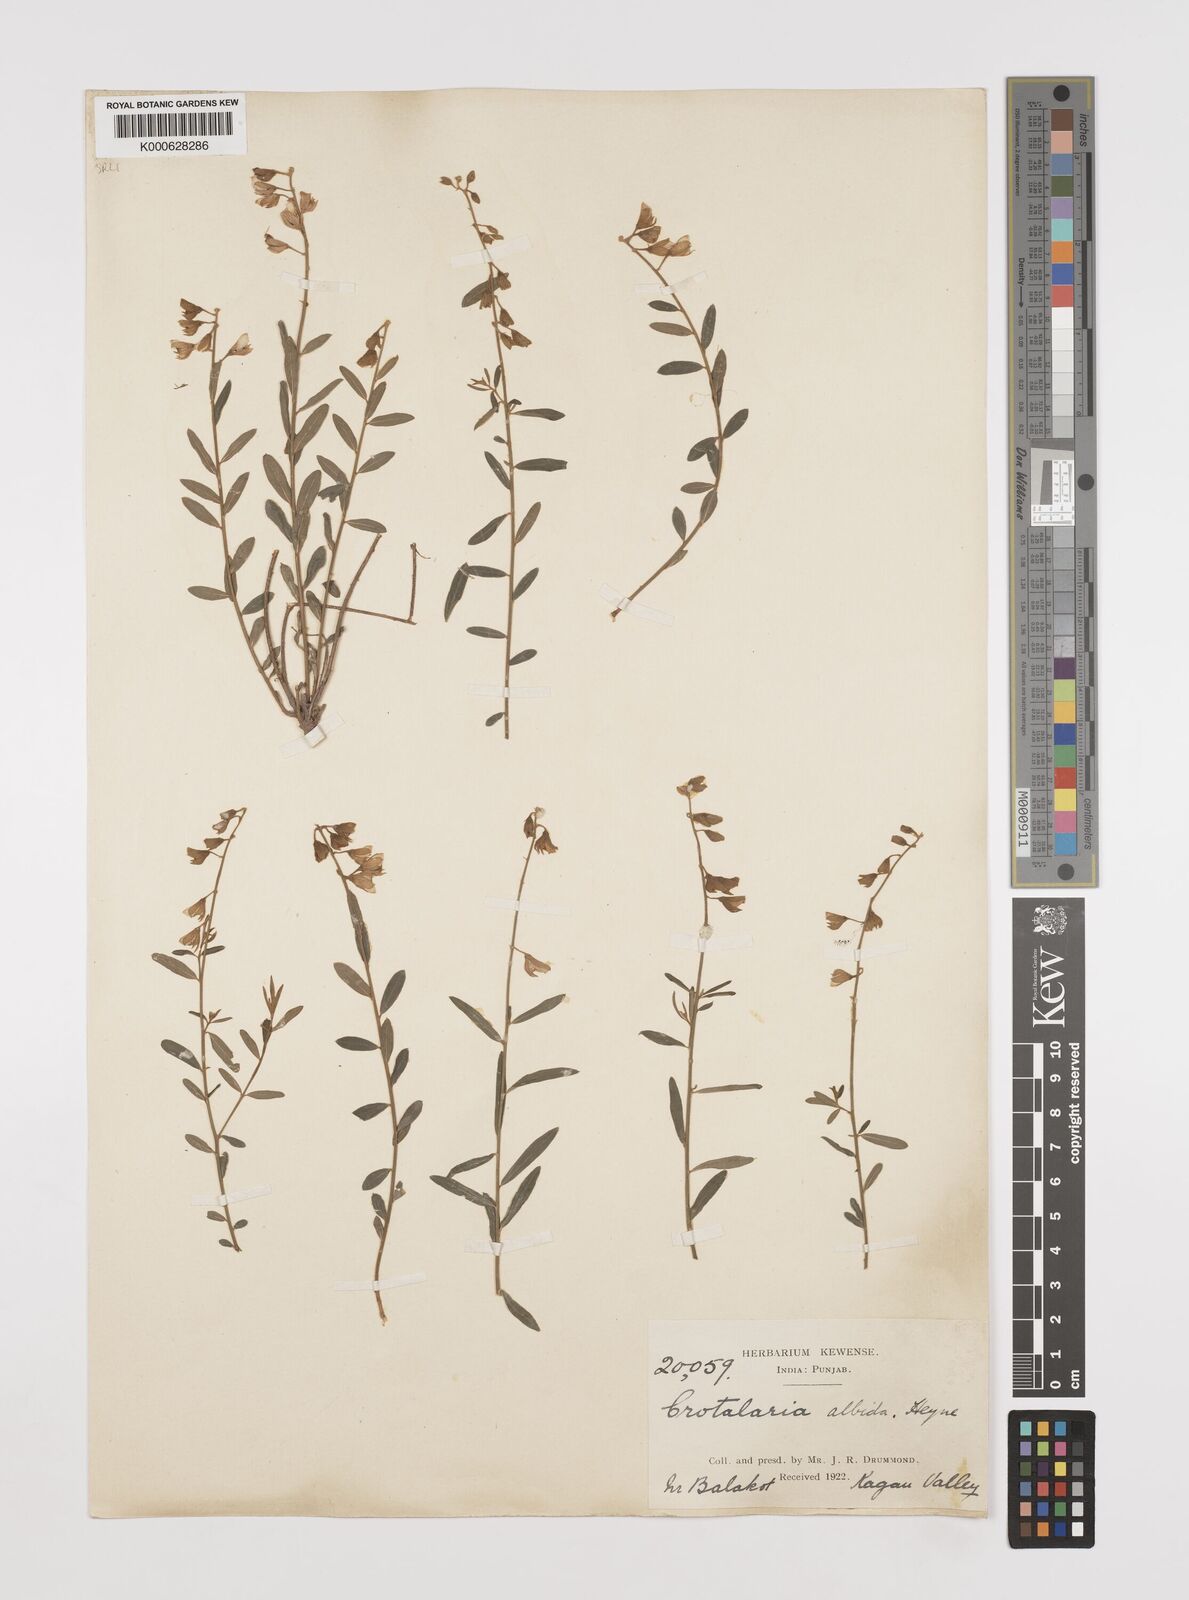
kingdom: Plantae
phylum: Tracheophyta
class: Magnoliopsida
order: Fabales
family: Fabaceae
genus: Crotalaria
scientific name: Crotalaria albida
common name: Taiwan crotalaria
